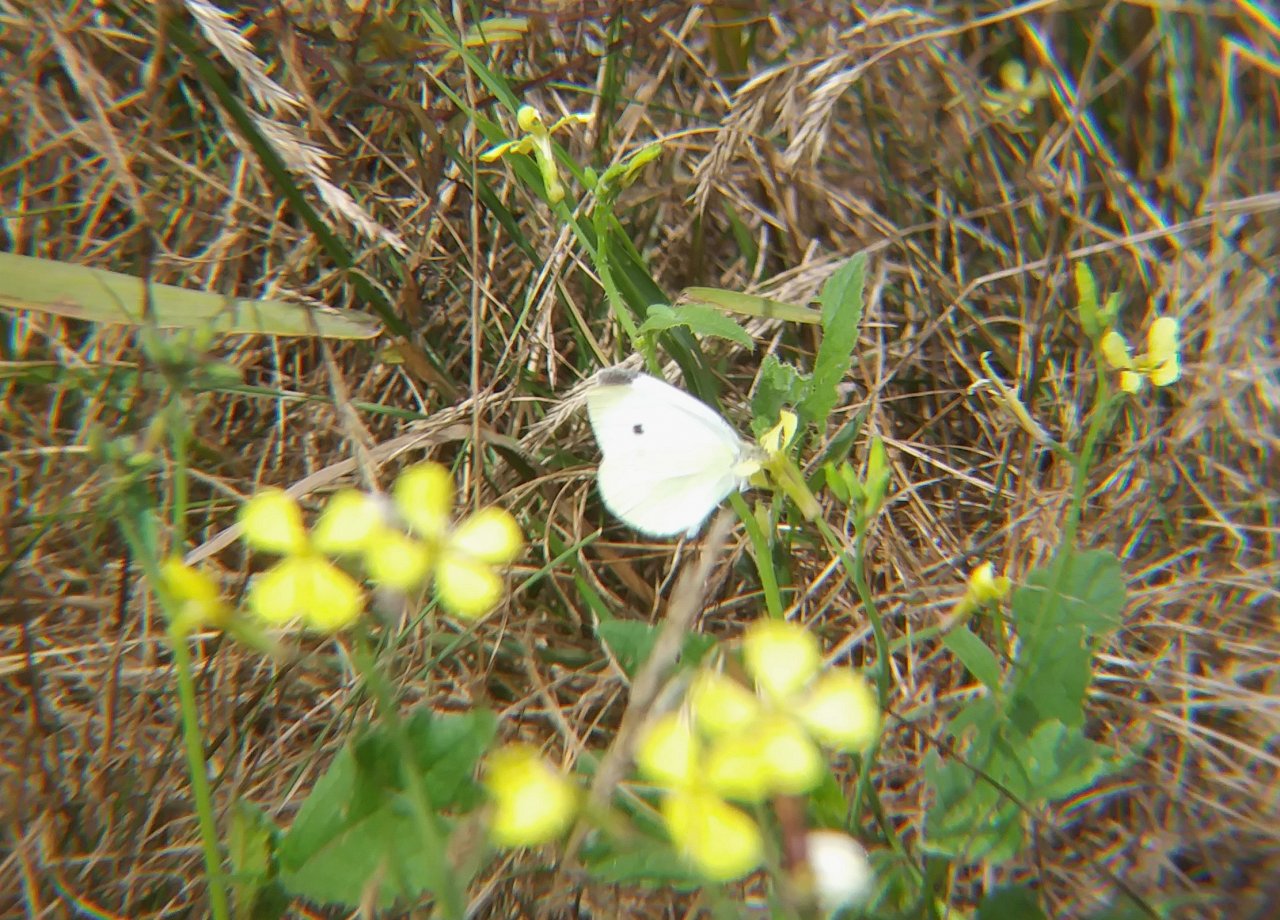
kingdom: Animalia
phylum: Arthropoda
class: Insecta
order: Lepidoptera
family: Pieridae
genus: Pieris
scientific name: Pieris rapae
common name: Cabbage White
